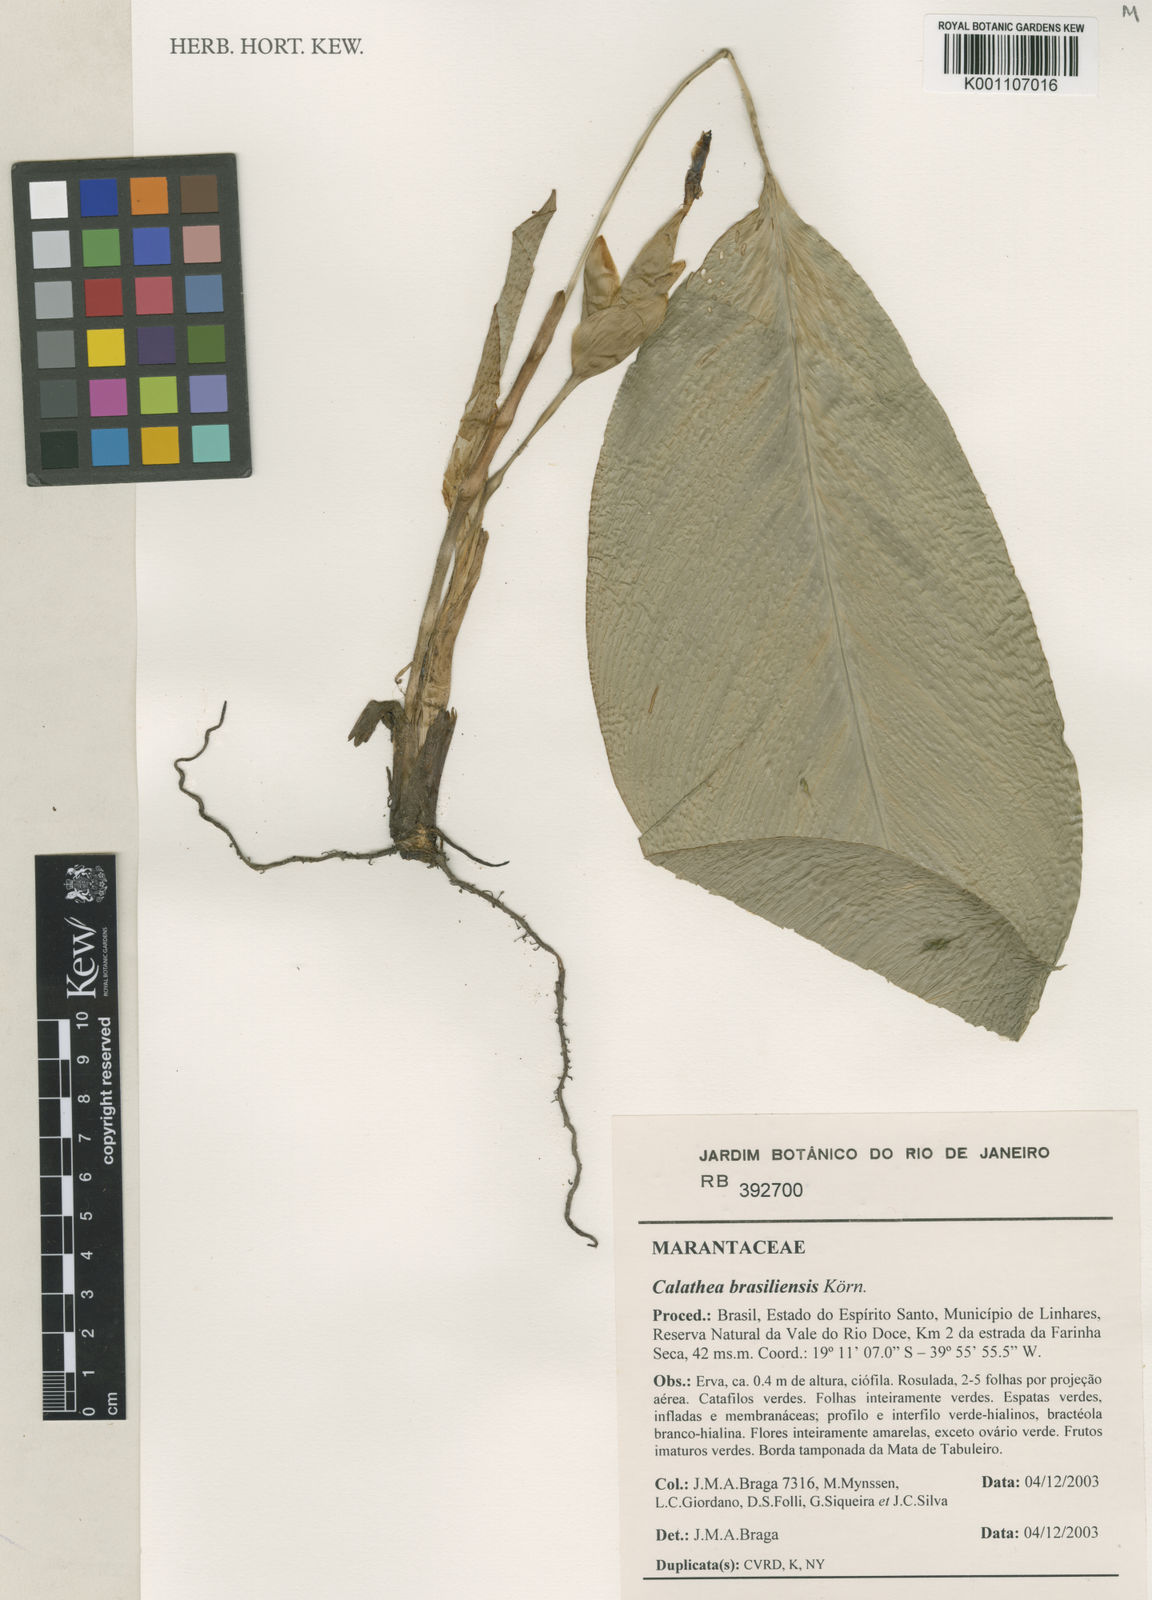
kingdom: Plantae
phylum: Tracheophyta
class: Liliopsida
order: Zingiberales
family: Marantaceae
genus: Calathea
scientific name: Calathea
